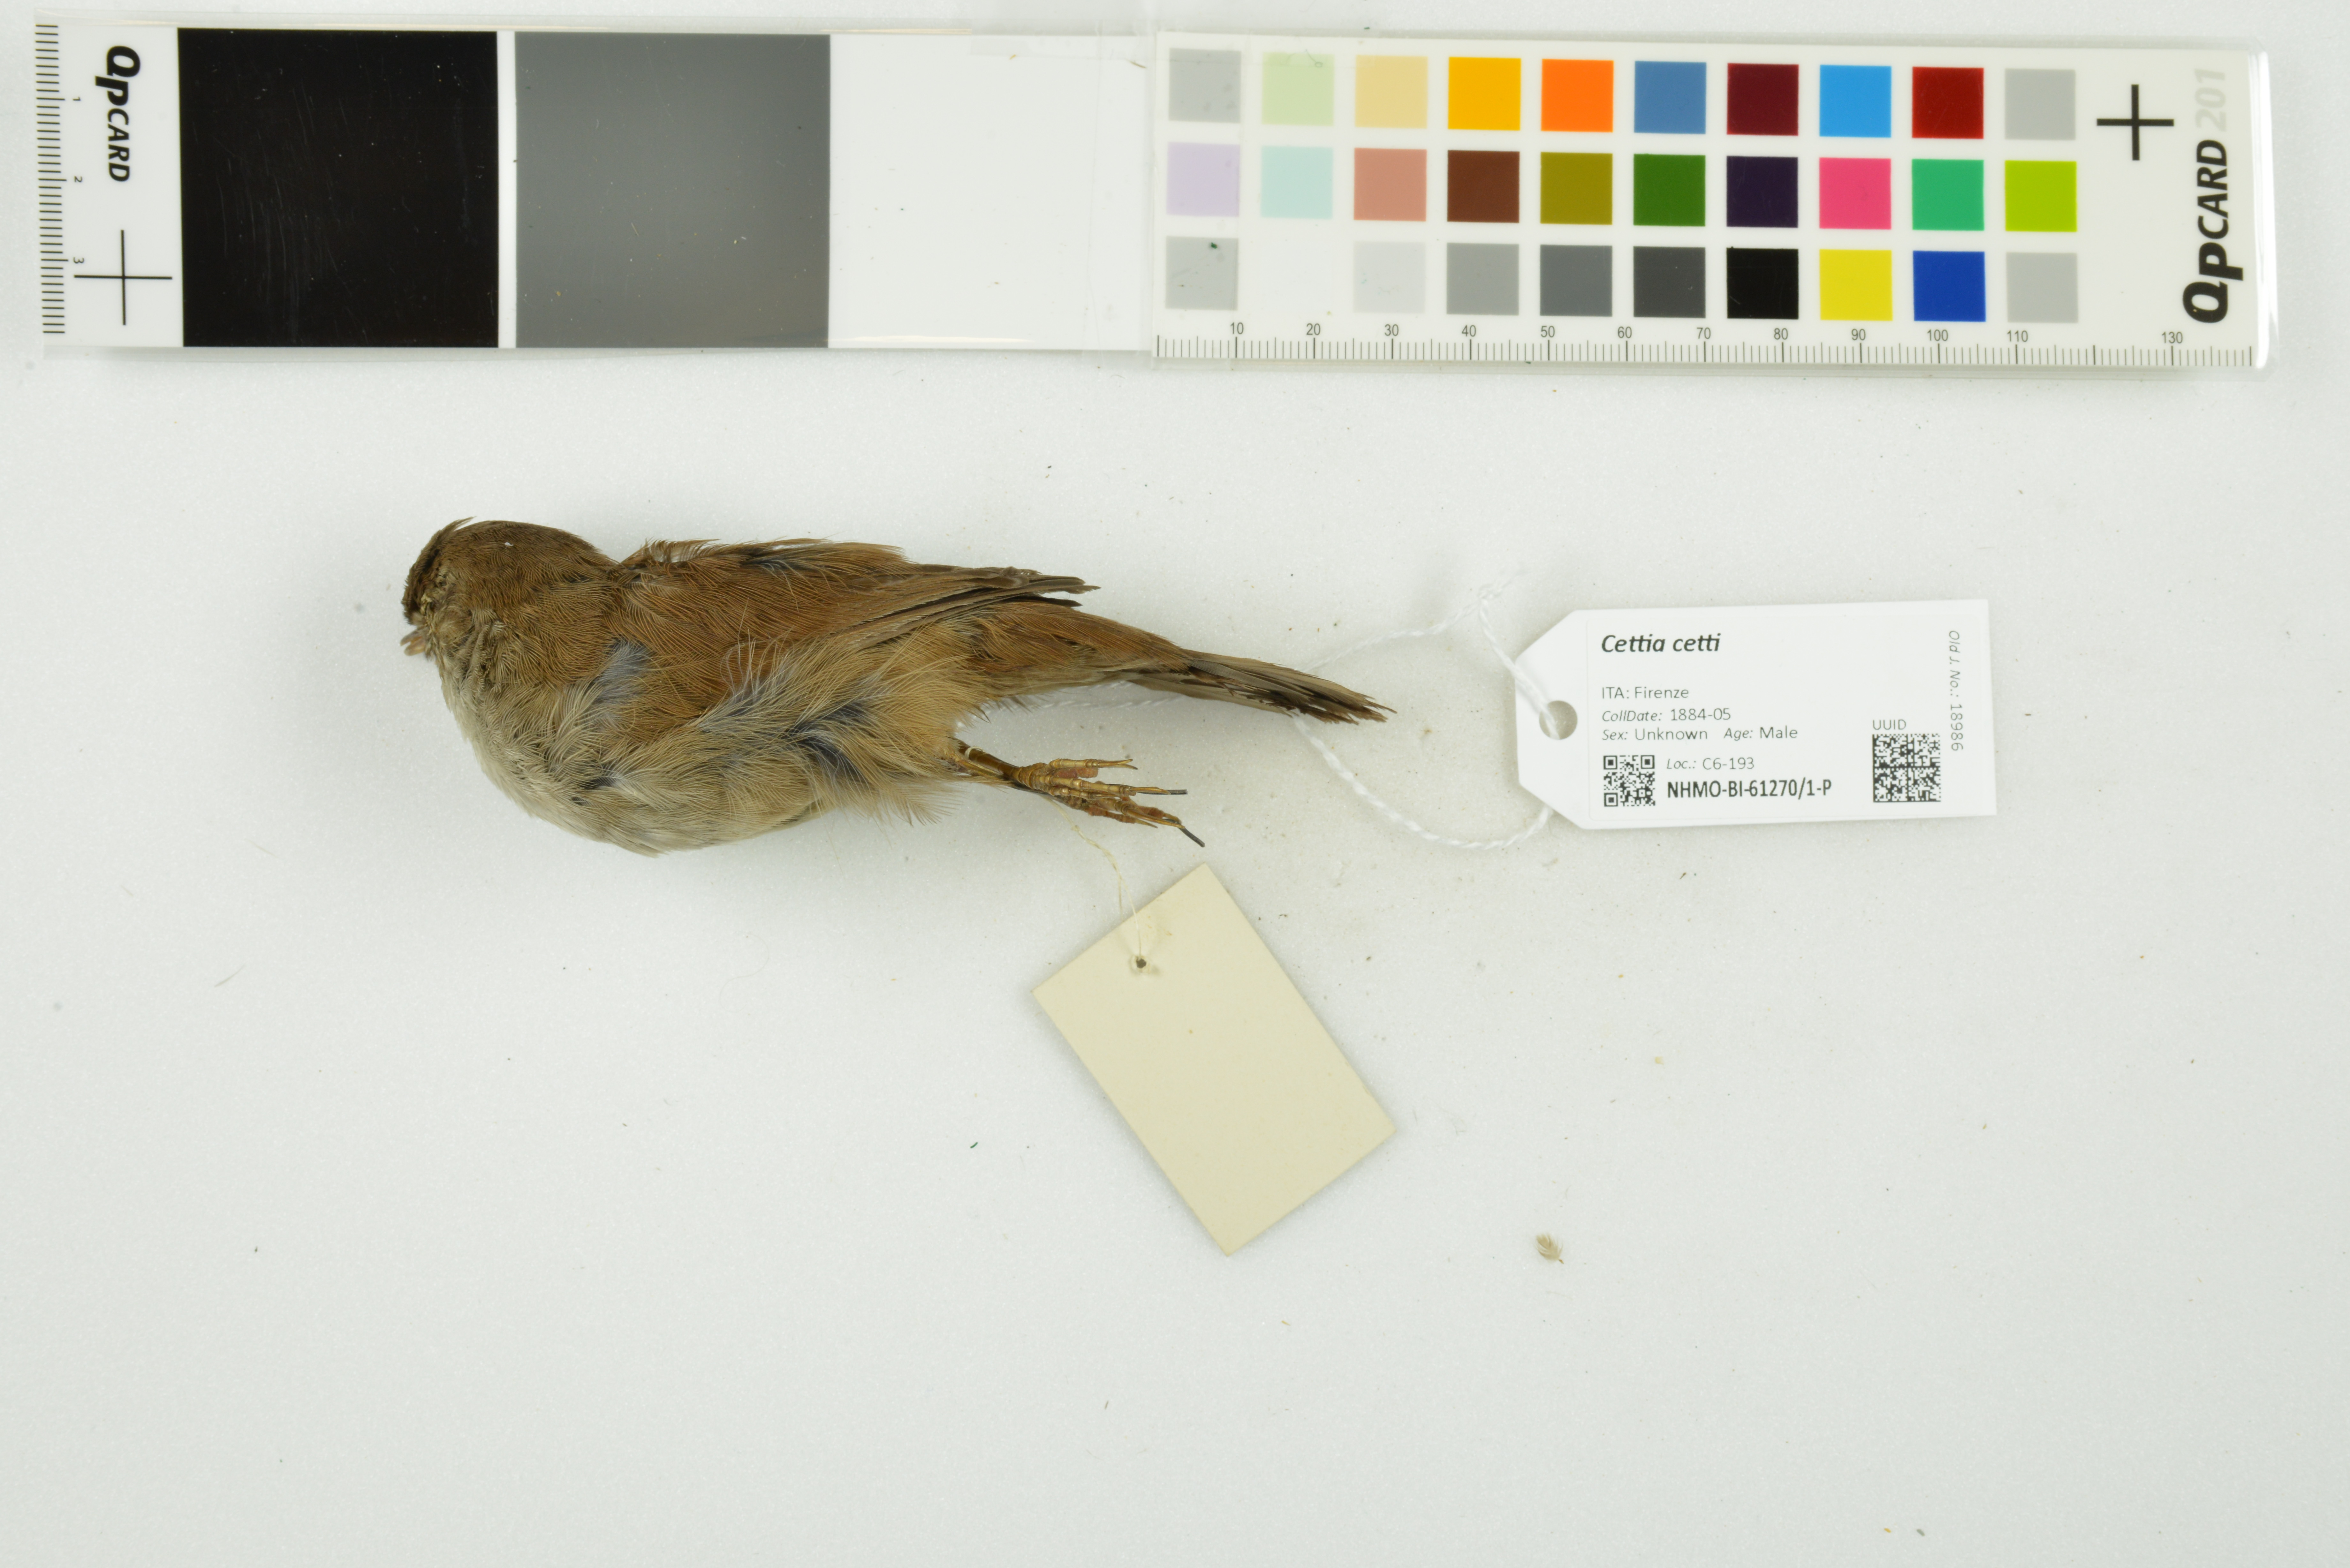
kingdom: Animalia
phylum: Chordata
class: Aves
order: Passeriformes
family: Cettiidae
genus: Cettia
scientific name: Cettia cetti
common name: Cetti's warbler
